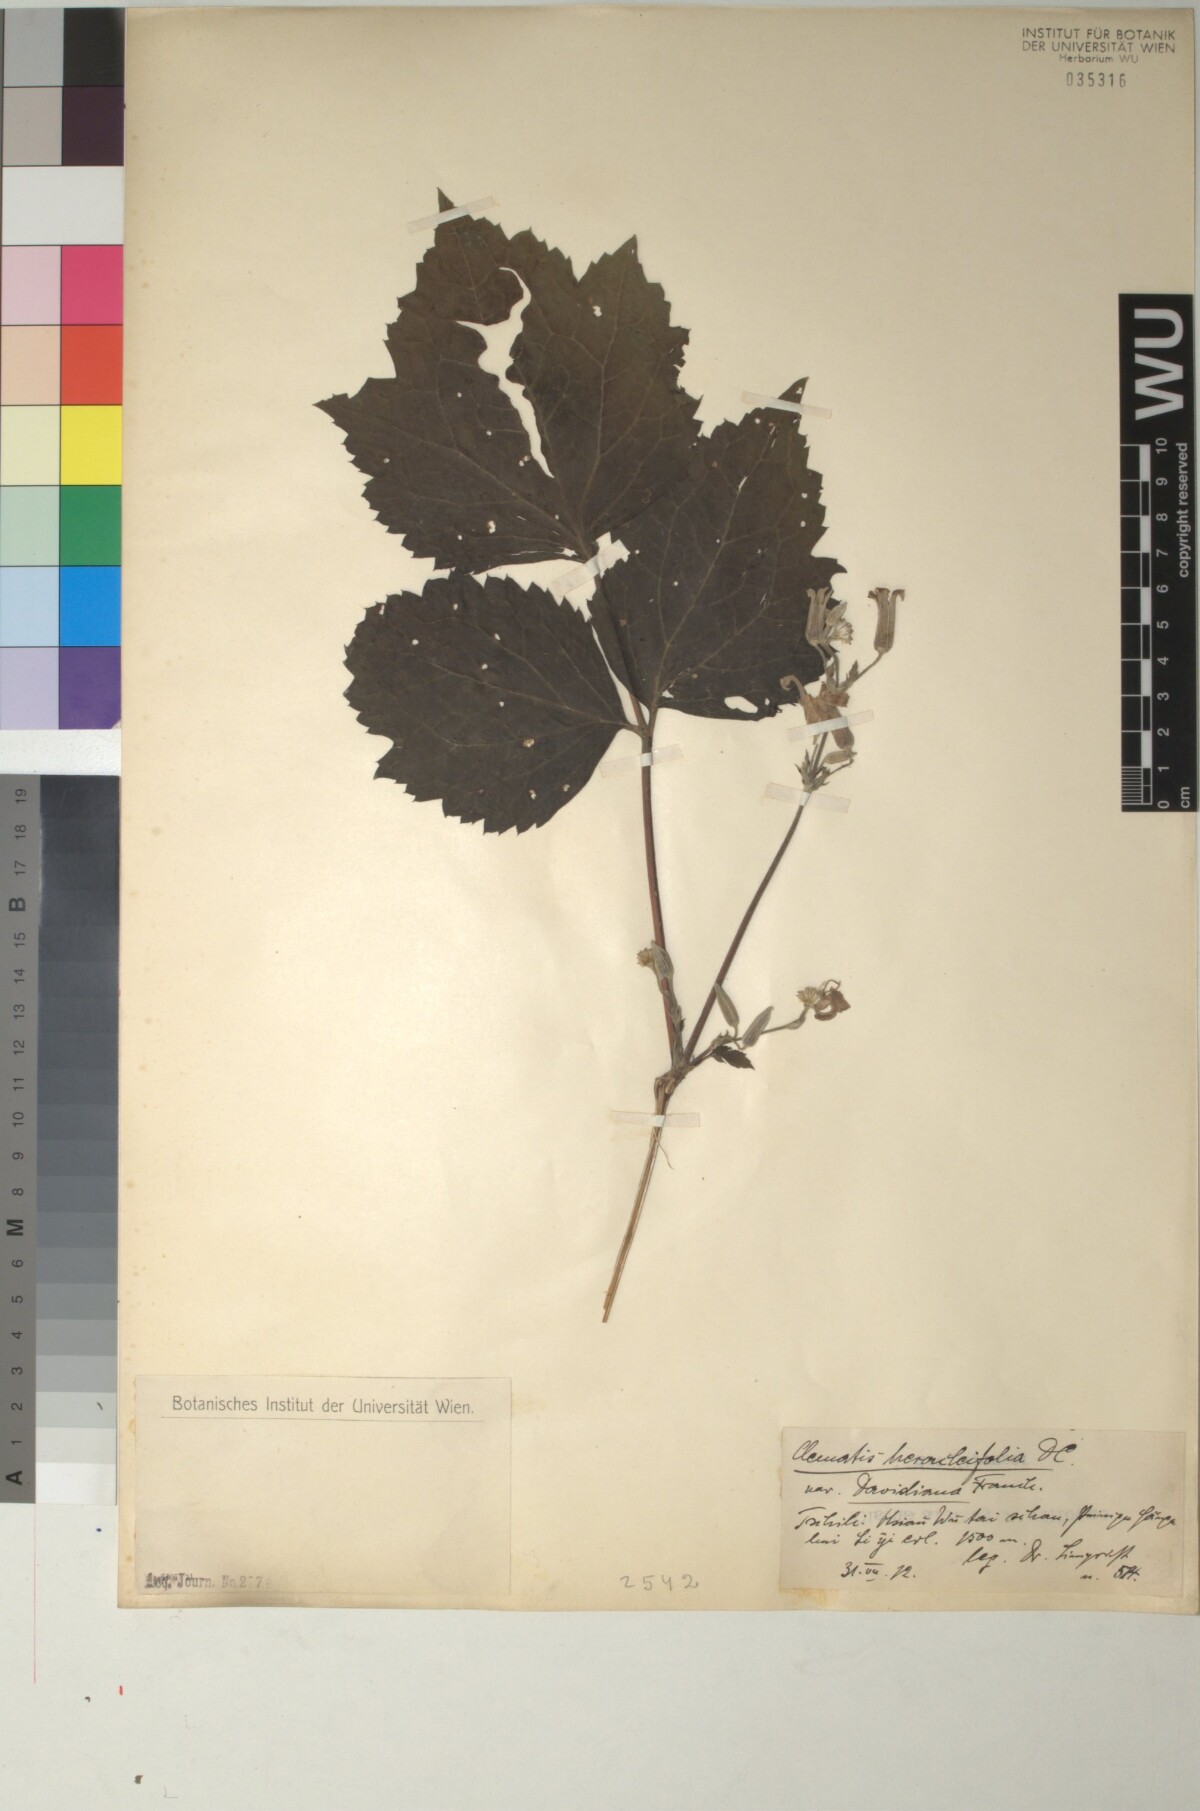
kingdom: Plantae
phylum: Tracheophyta
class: Magnoliopsida
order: Ranunculales
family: Ranunculaceae
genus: Clematis
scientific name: Clematis heracleifolia
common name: Hyacinth-flower clematis
